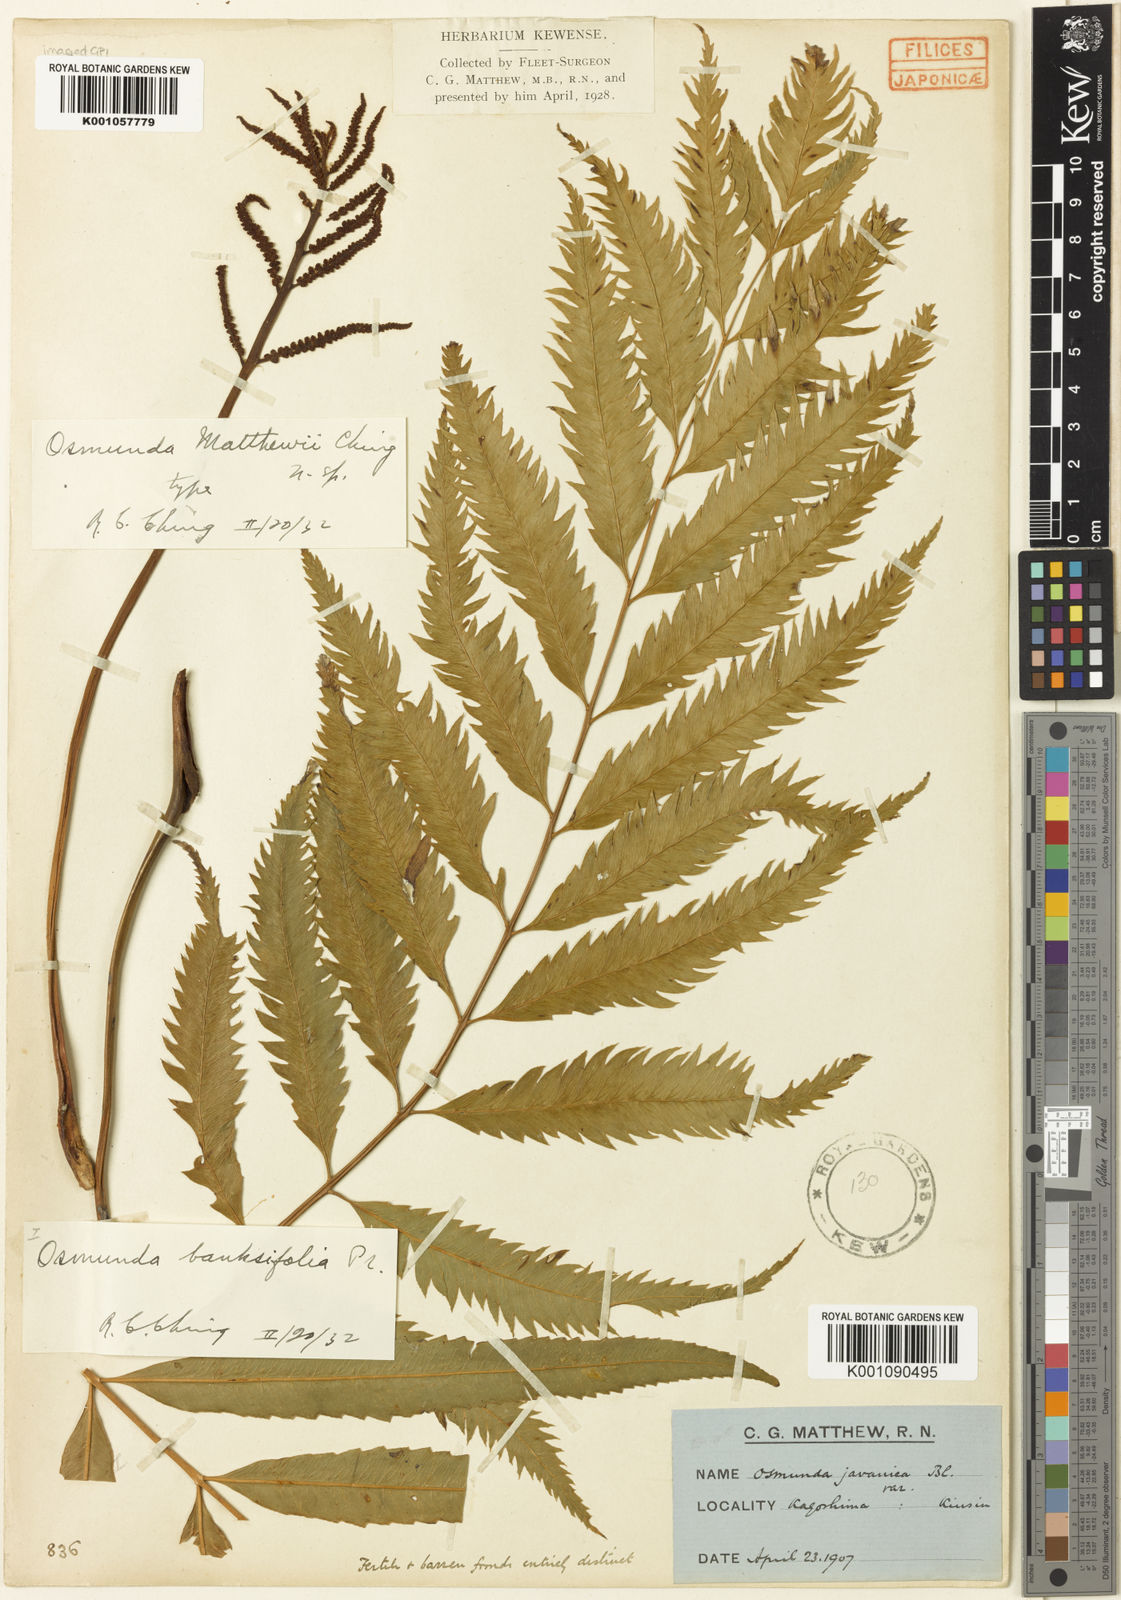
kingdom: Plantae
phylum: Tracheophyta
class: Polypodiopsida
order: Osmundales
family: Osmundaceae
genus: Osmunda
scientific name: Osmunda
